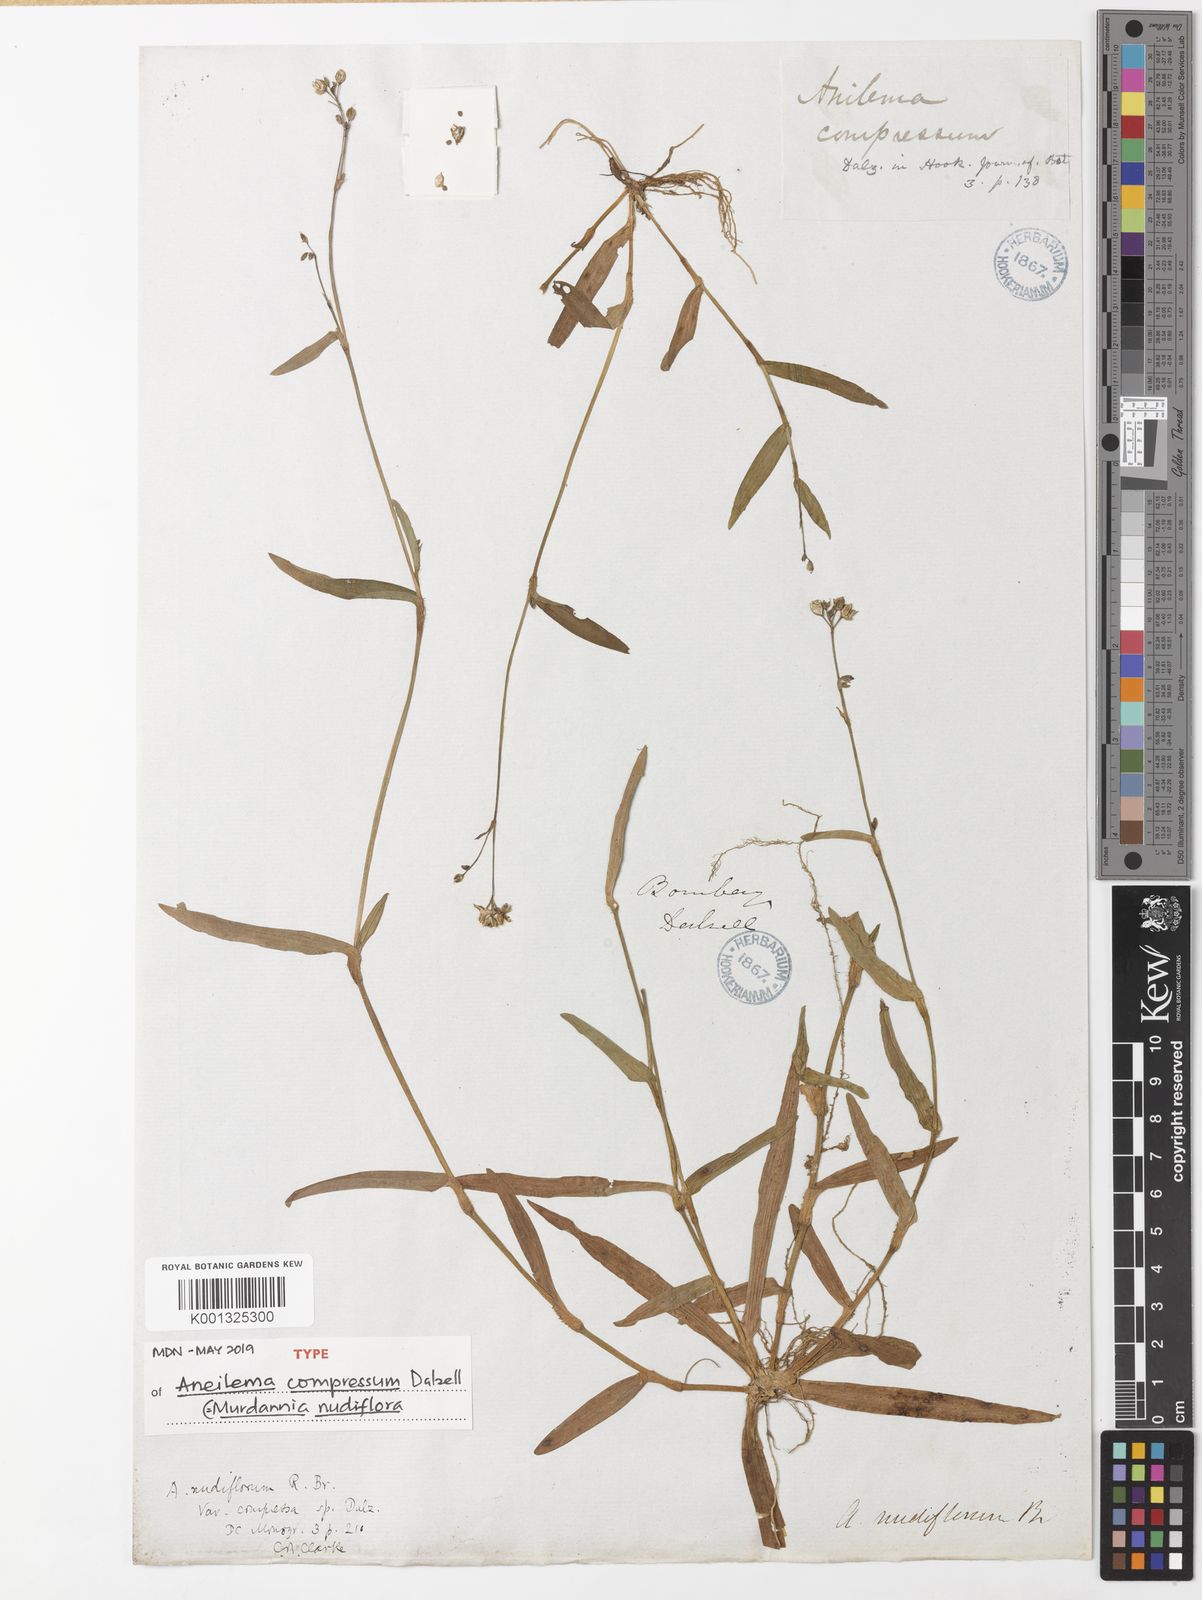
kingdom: Plantae
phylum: Tracheophyta
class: Liliopsida
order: Commelinales
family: Commelinaceae
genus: Murdannia
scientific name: Murdannia nudiflora
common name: Nakedstem dewflower
